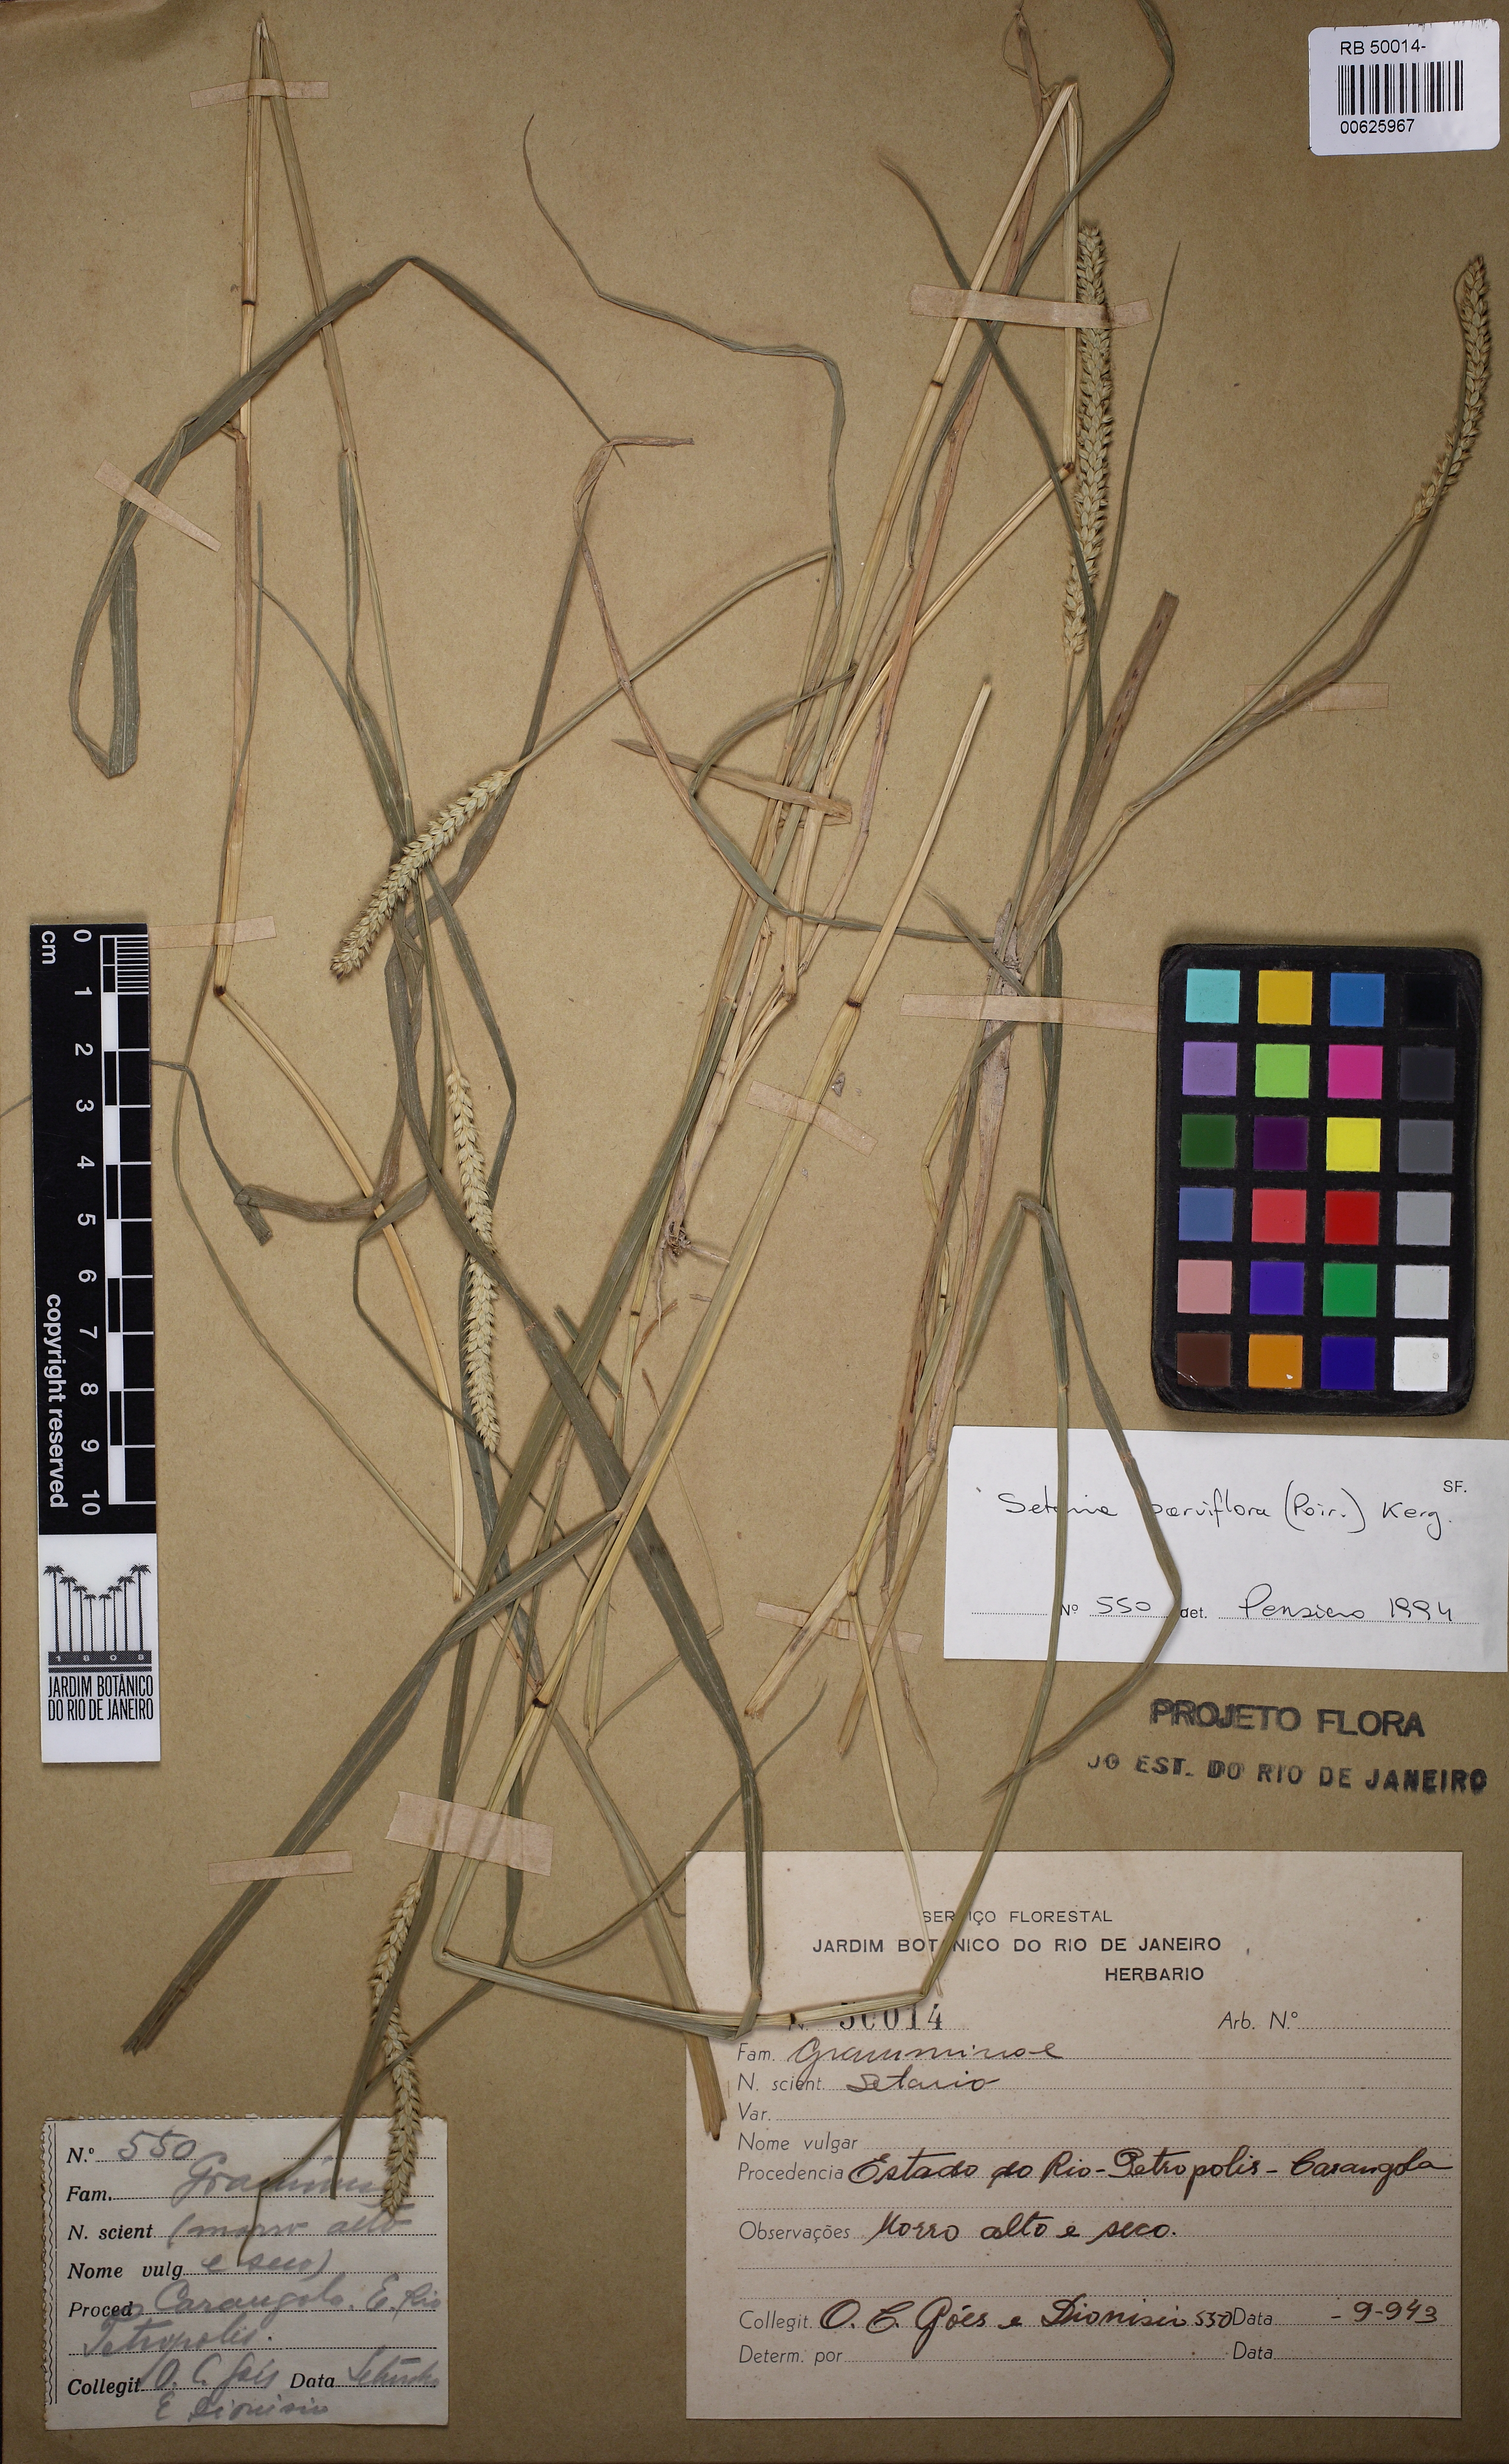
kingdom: Plantae
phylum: Tracheophyta
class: Liliopsida
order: Poales
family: Poaceae
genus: Setaria
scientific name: Setaria parviflora
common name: Knotroot bristle-grass
